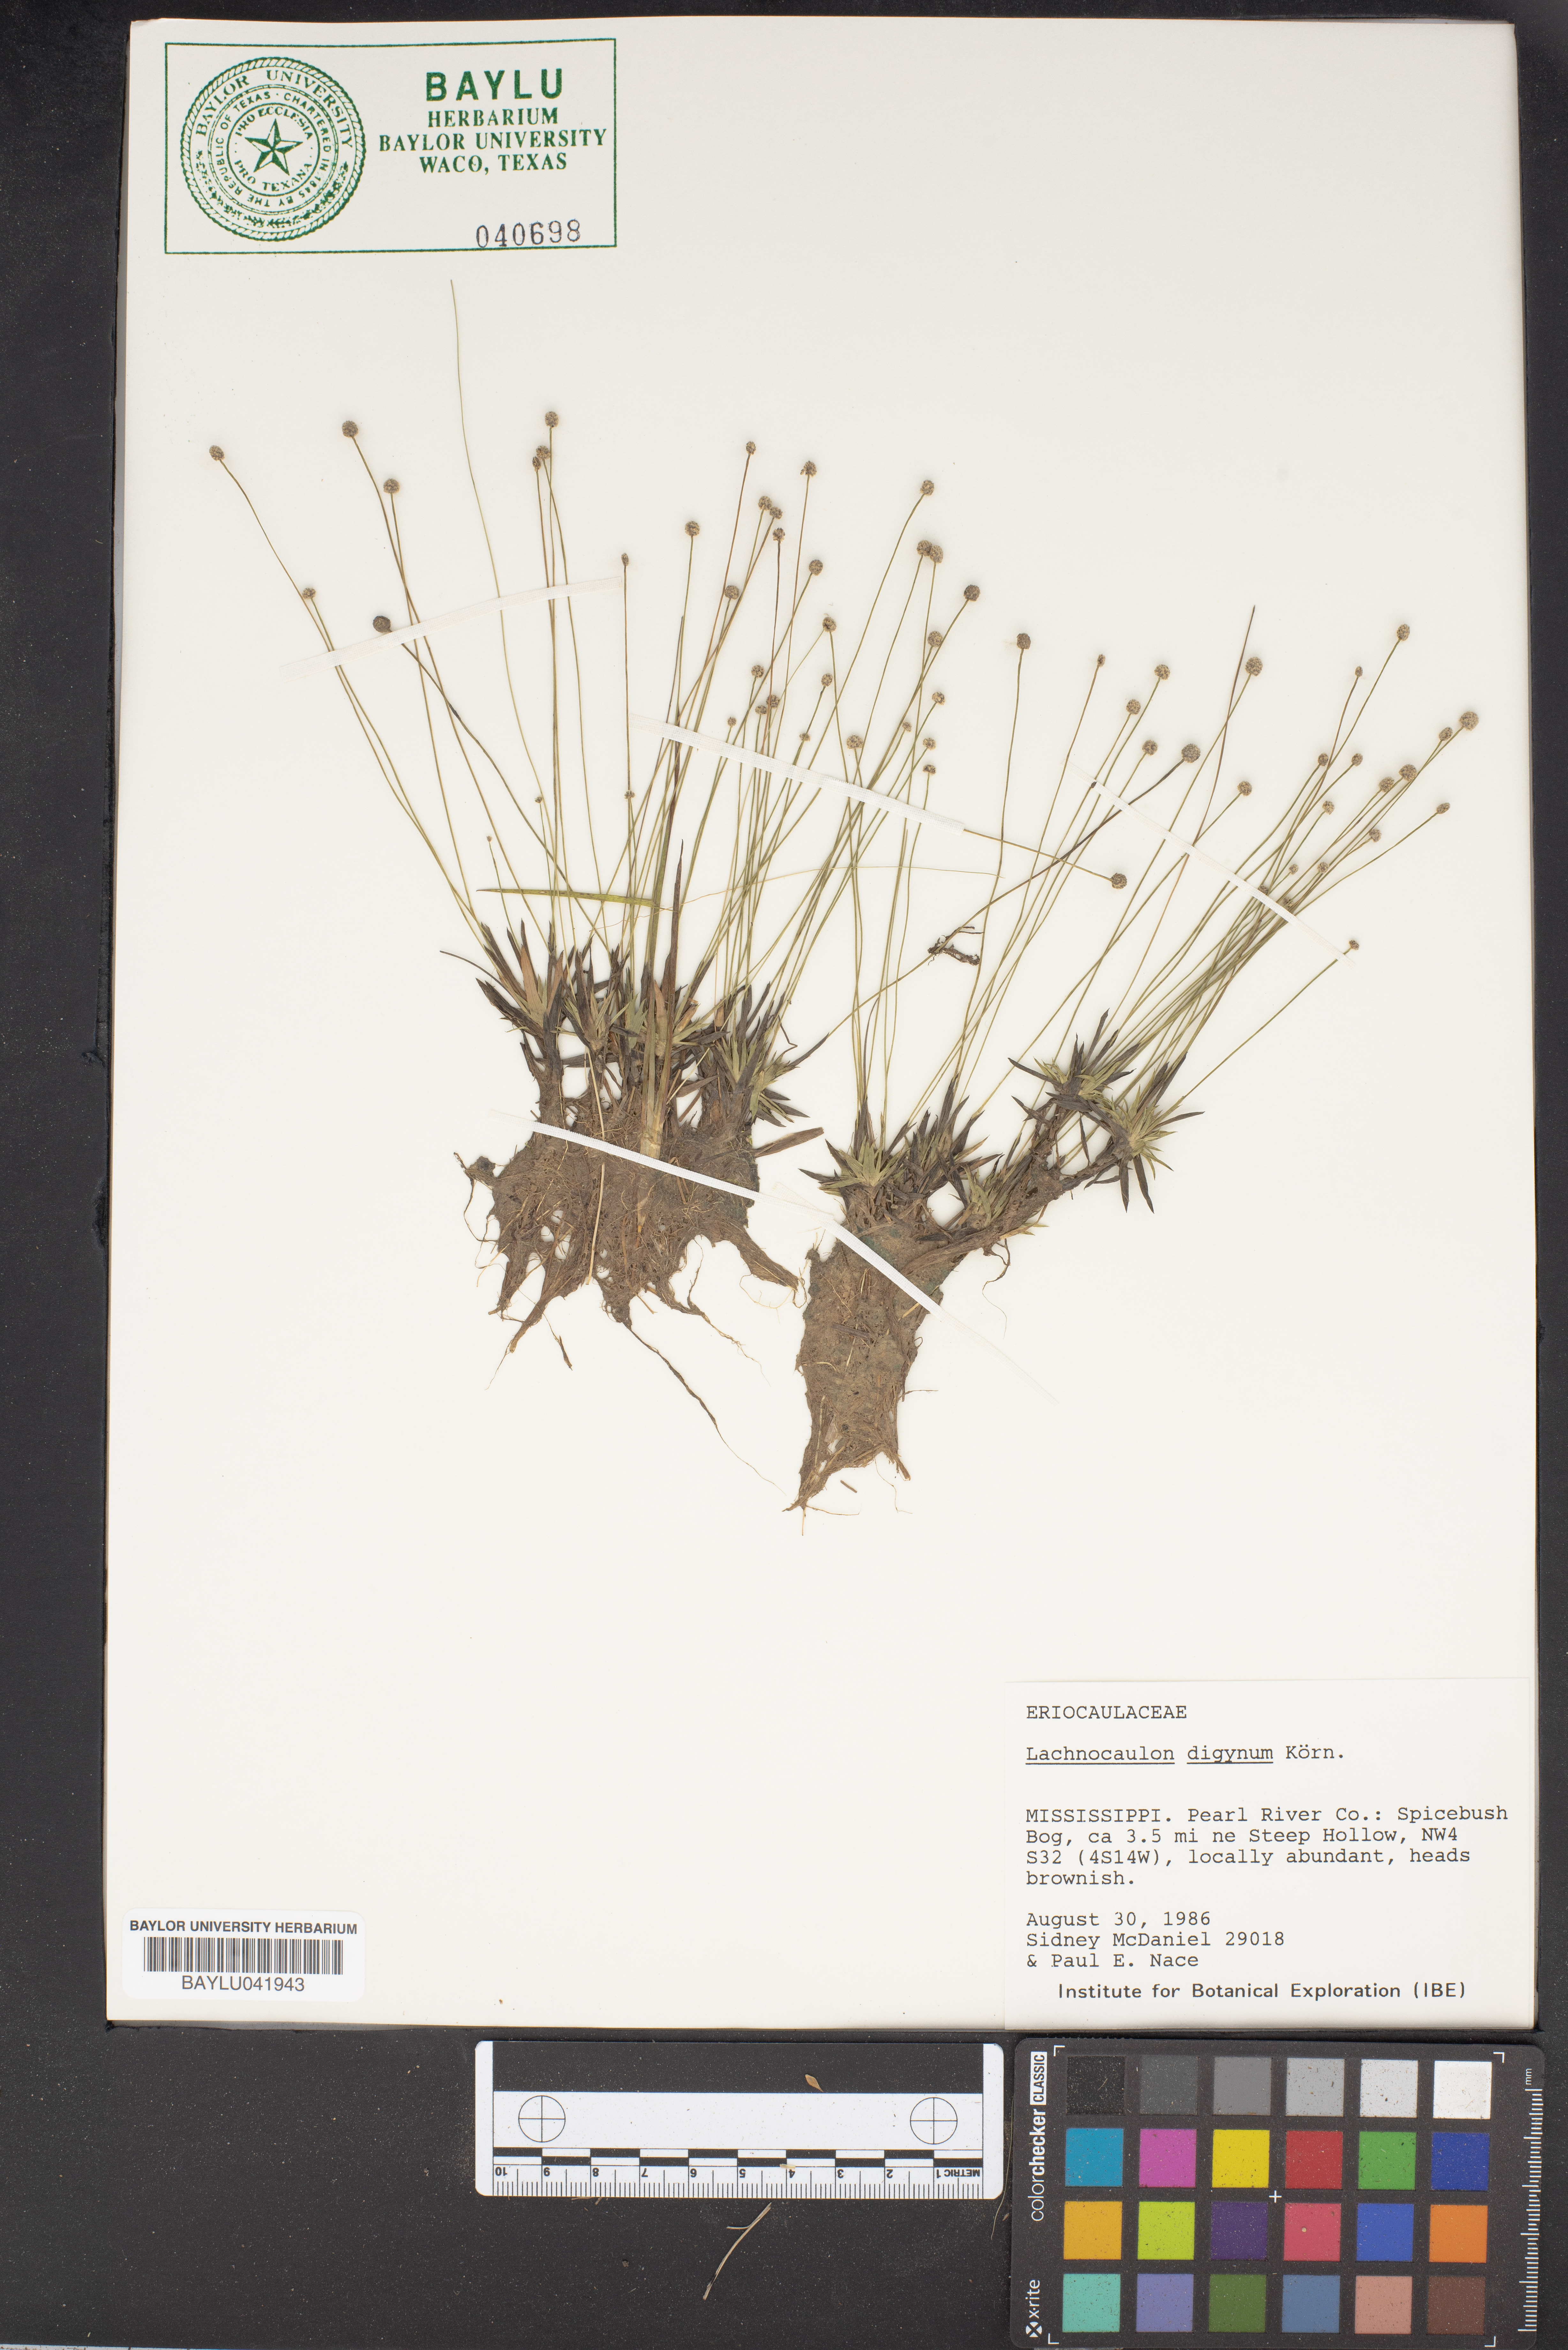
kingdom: Plantae
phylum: Tracheophyta
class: Liliopsida
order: Poales
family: Eriocaulaceae
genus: Paepalanthus
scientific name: Paepalanthus digynus
